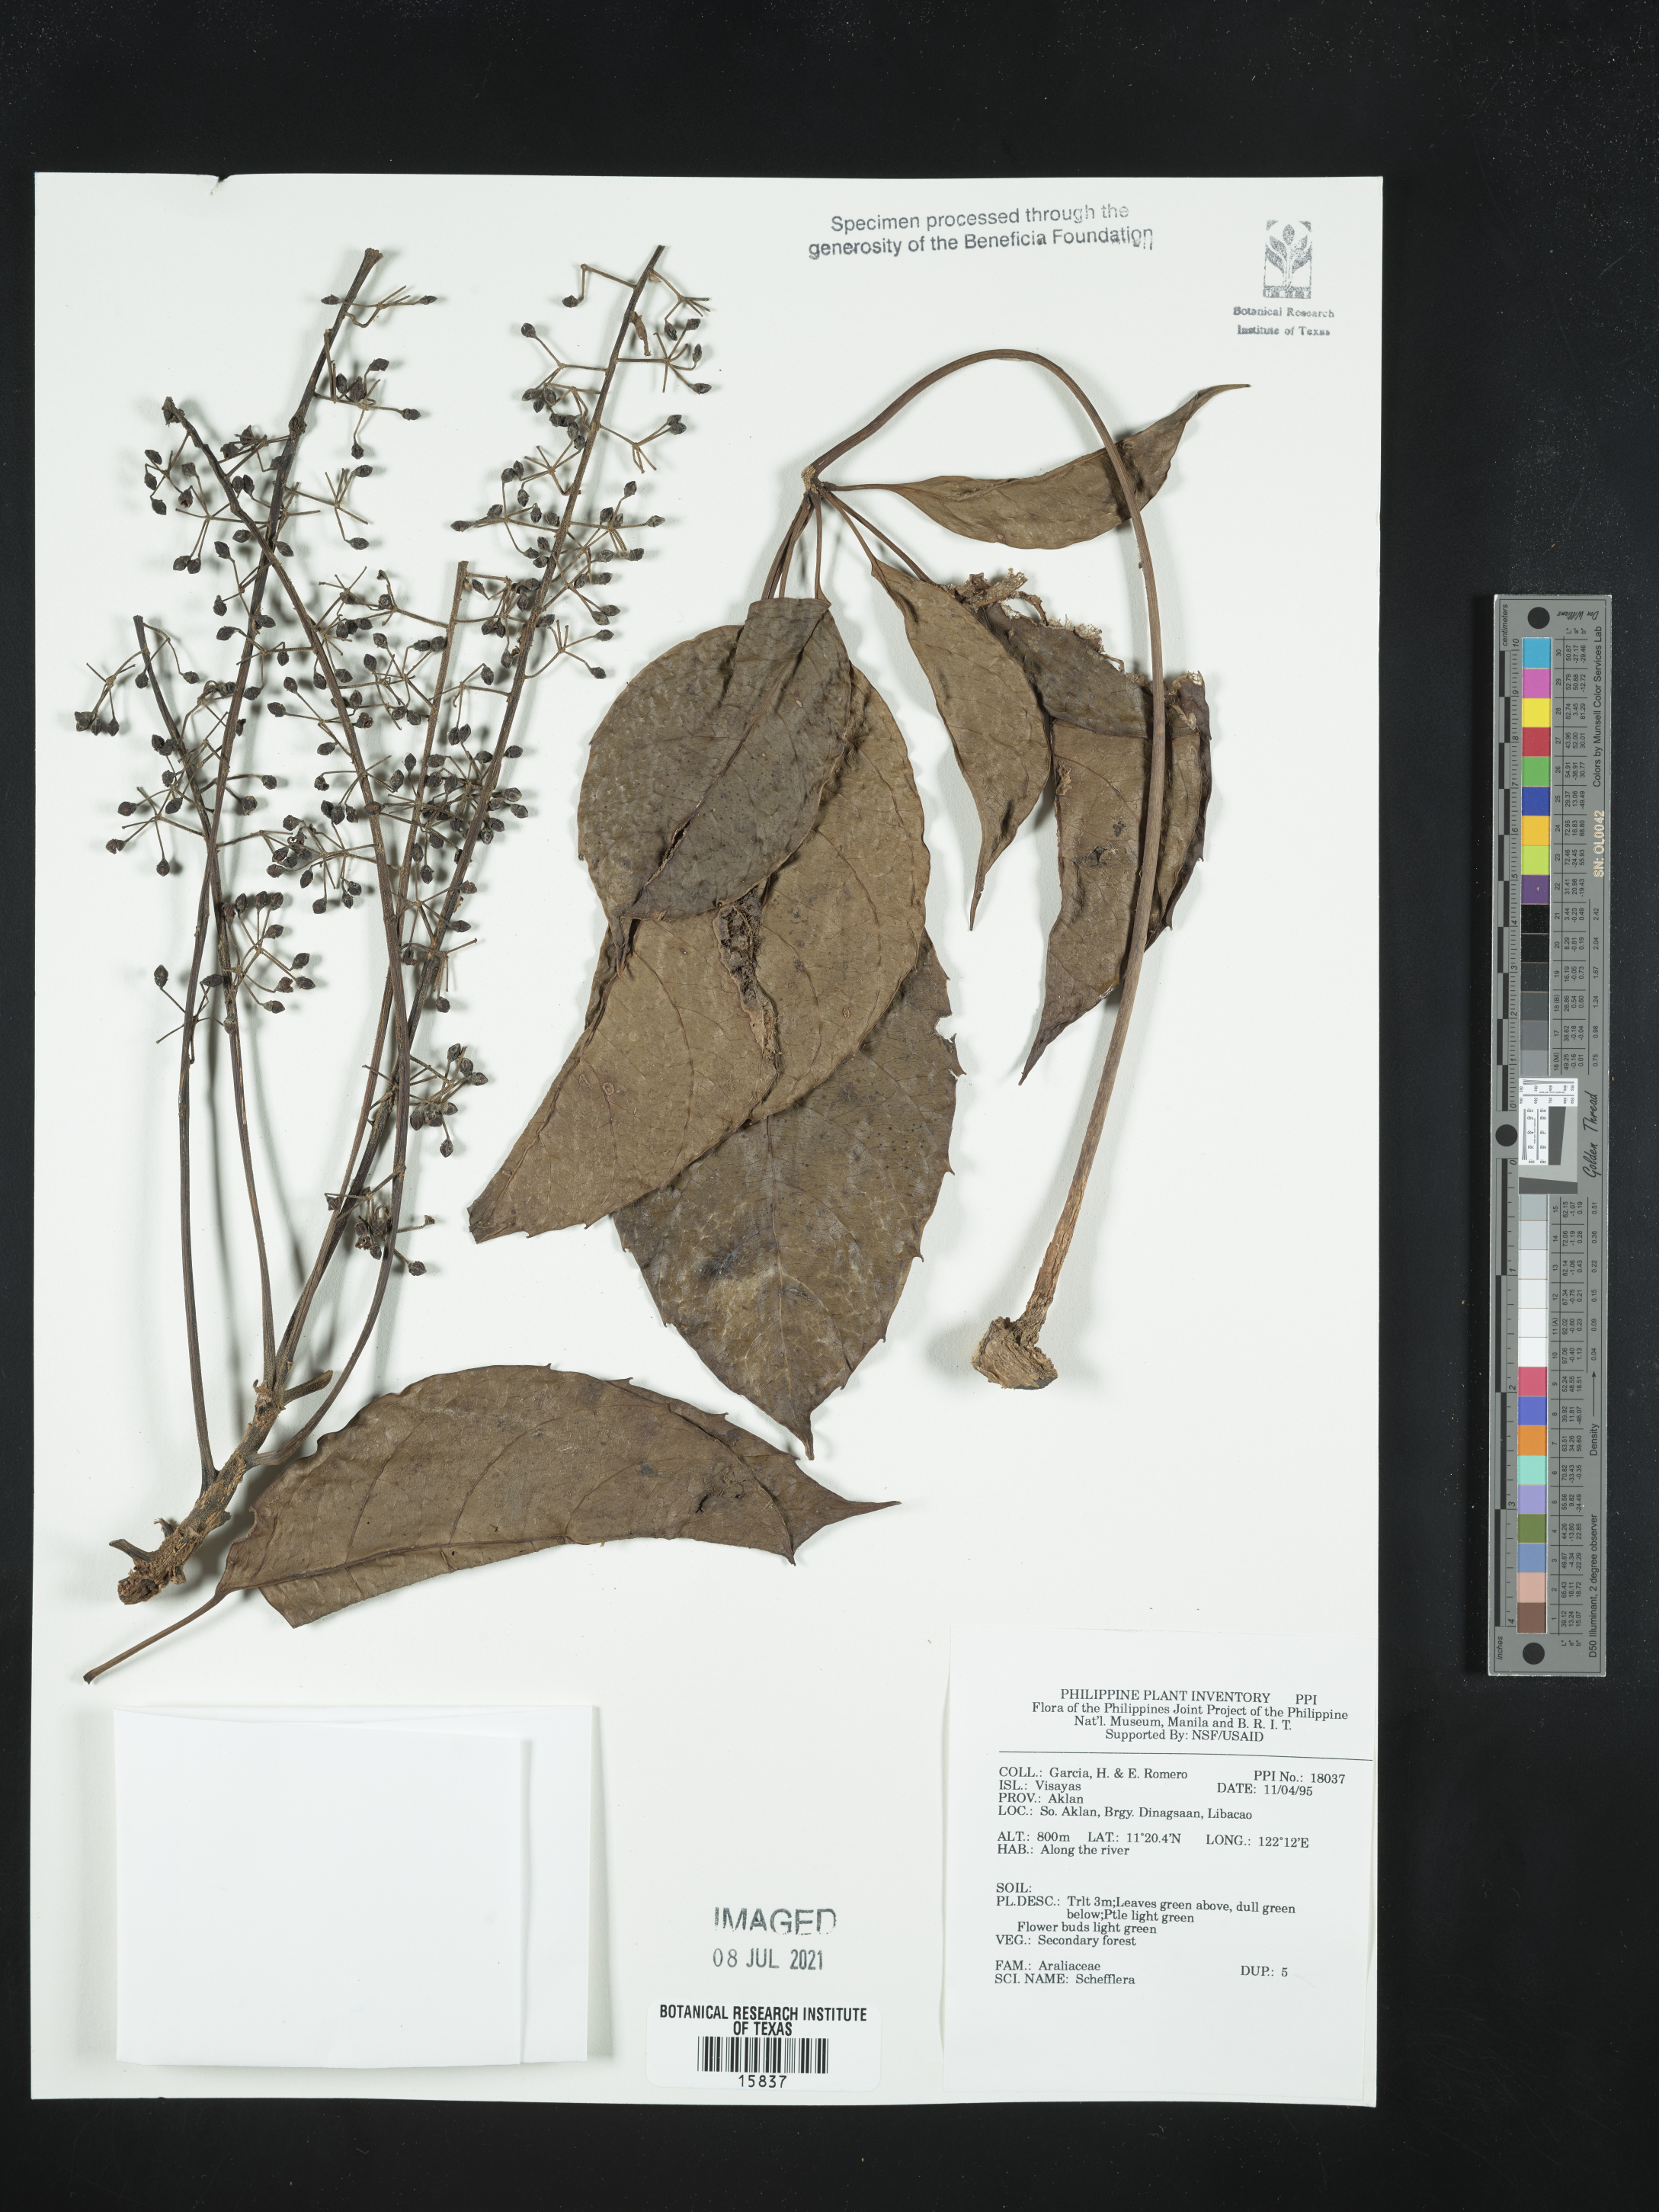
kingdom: Plantae
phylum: Tracheophyta
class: Magnoliopsida
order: Apiales
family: Araliaceae
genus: Schefflera
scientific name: Schefflera
